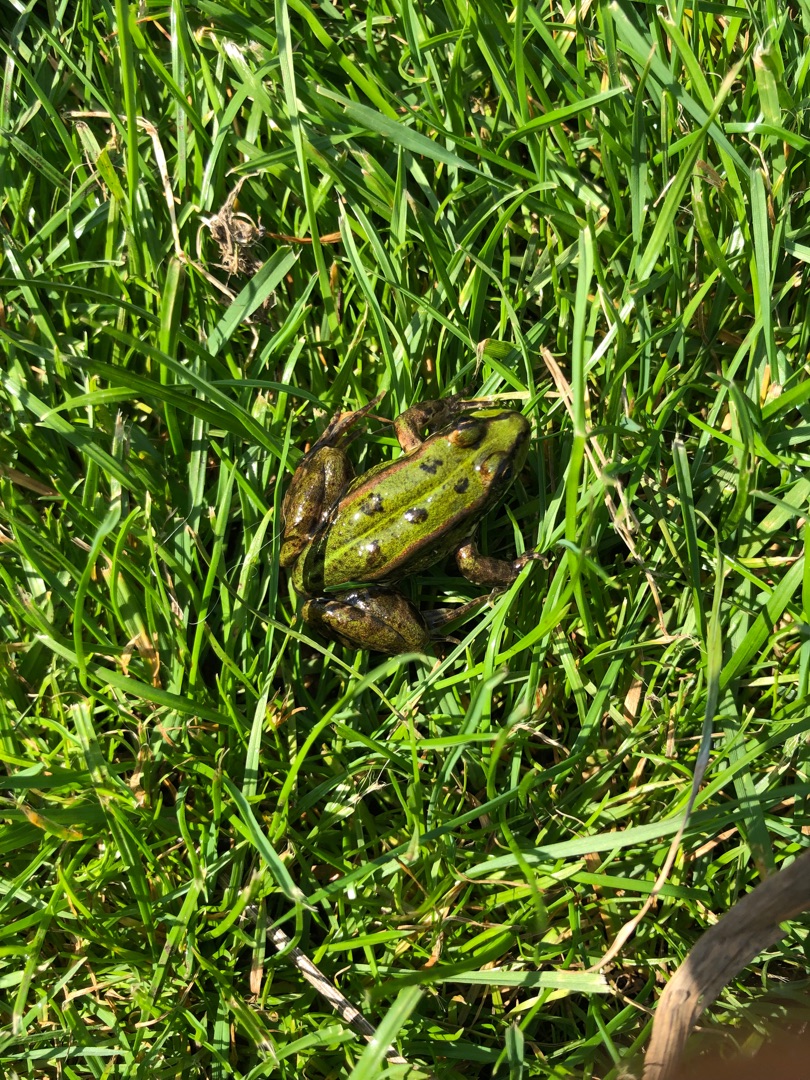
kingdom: Animalia
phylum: Chordata
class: Amphibia
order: Anura
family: Ranidae
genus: Pelophylax
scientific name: Pelophylax lessonae
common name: Grøn frø
